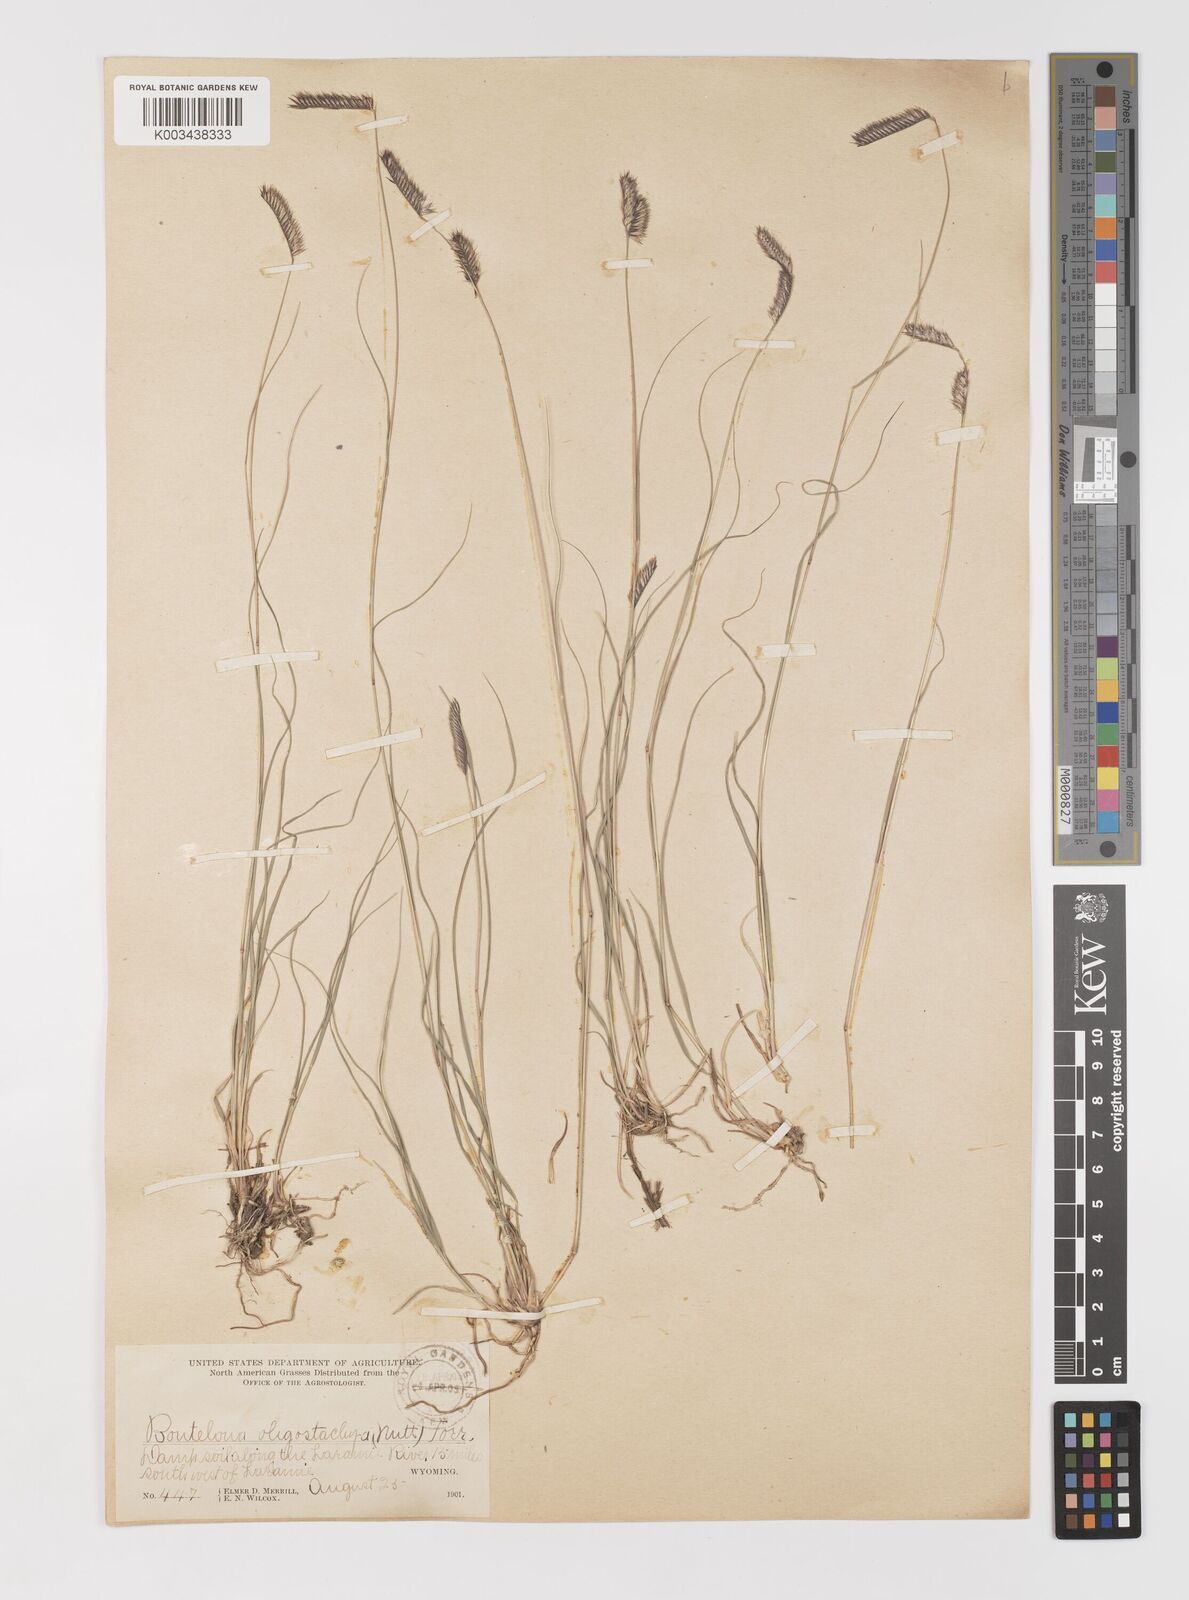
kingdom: Plantae
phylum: Tracheophyta
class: Liliopsida
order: Poales
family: Poaceae
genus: Bouteloua
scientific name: Bouteloua
